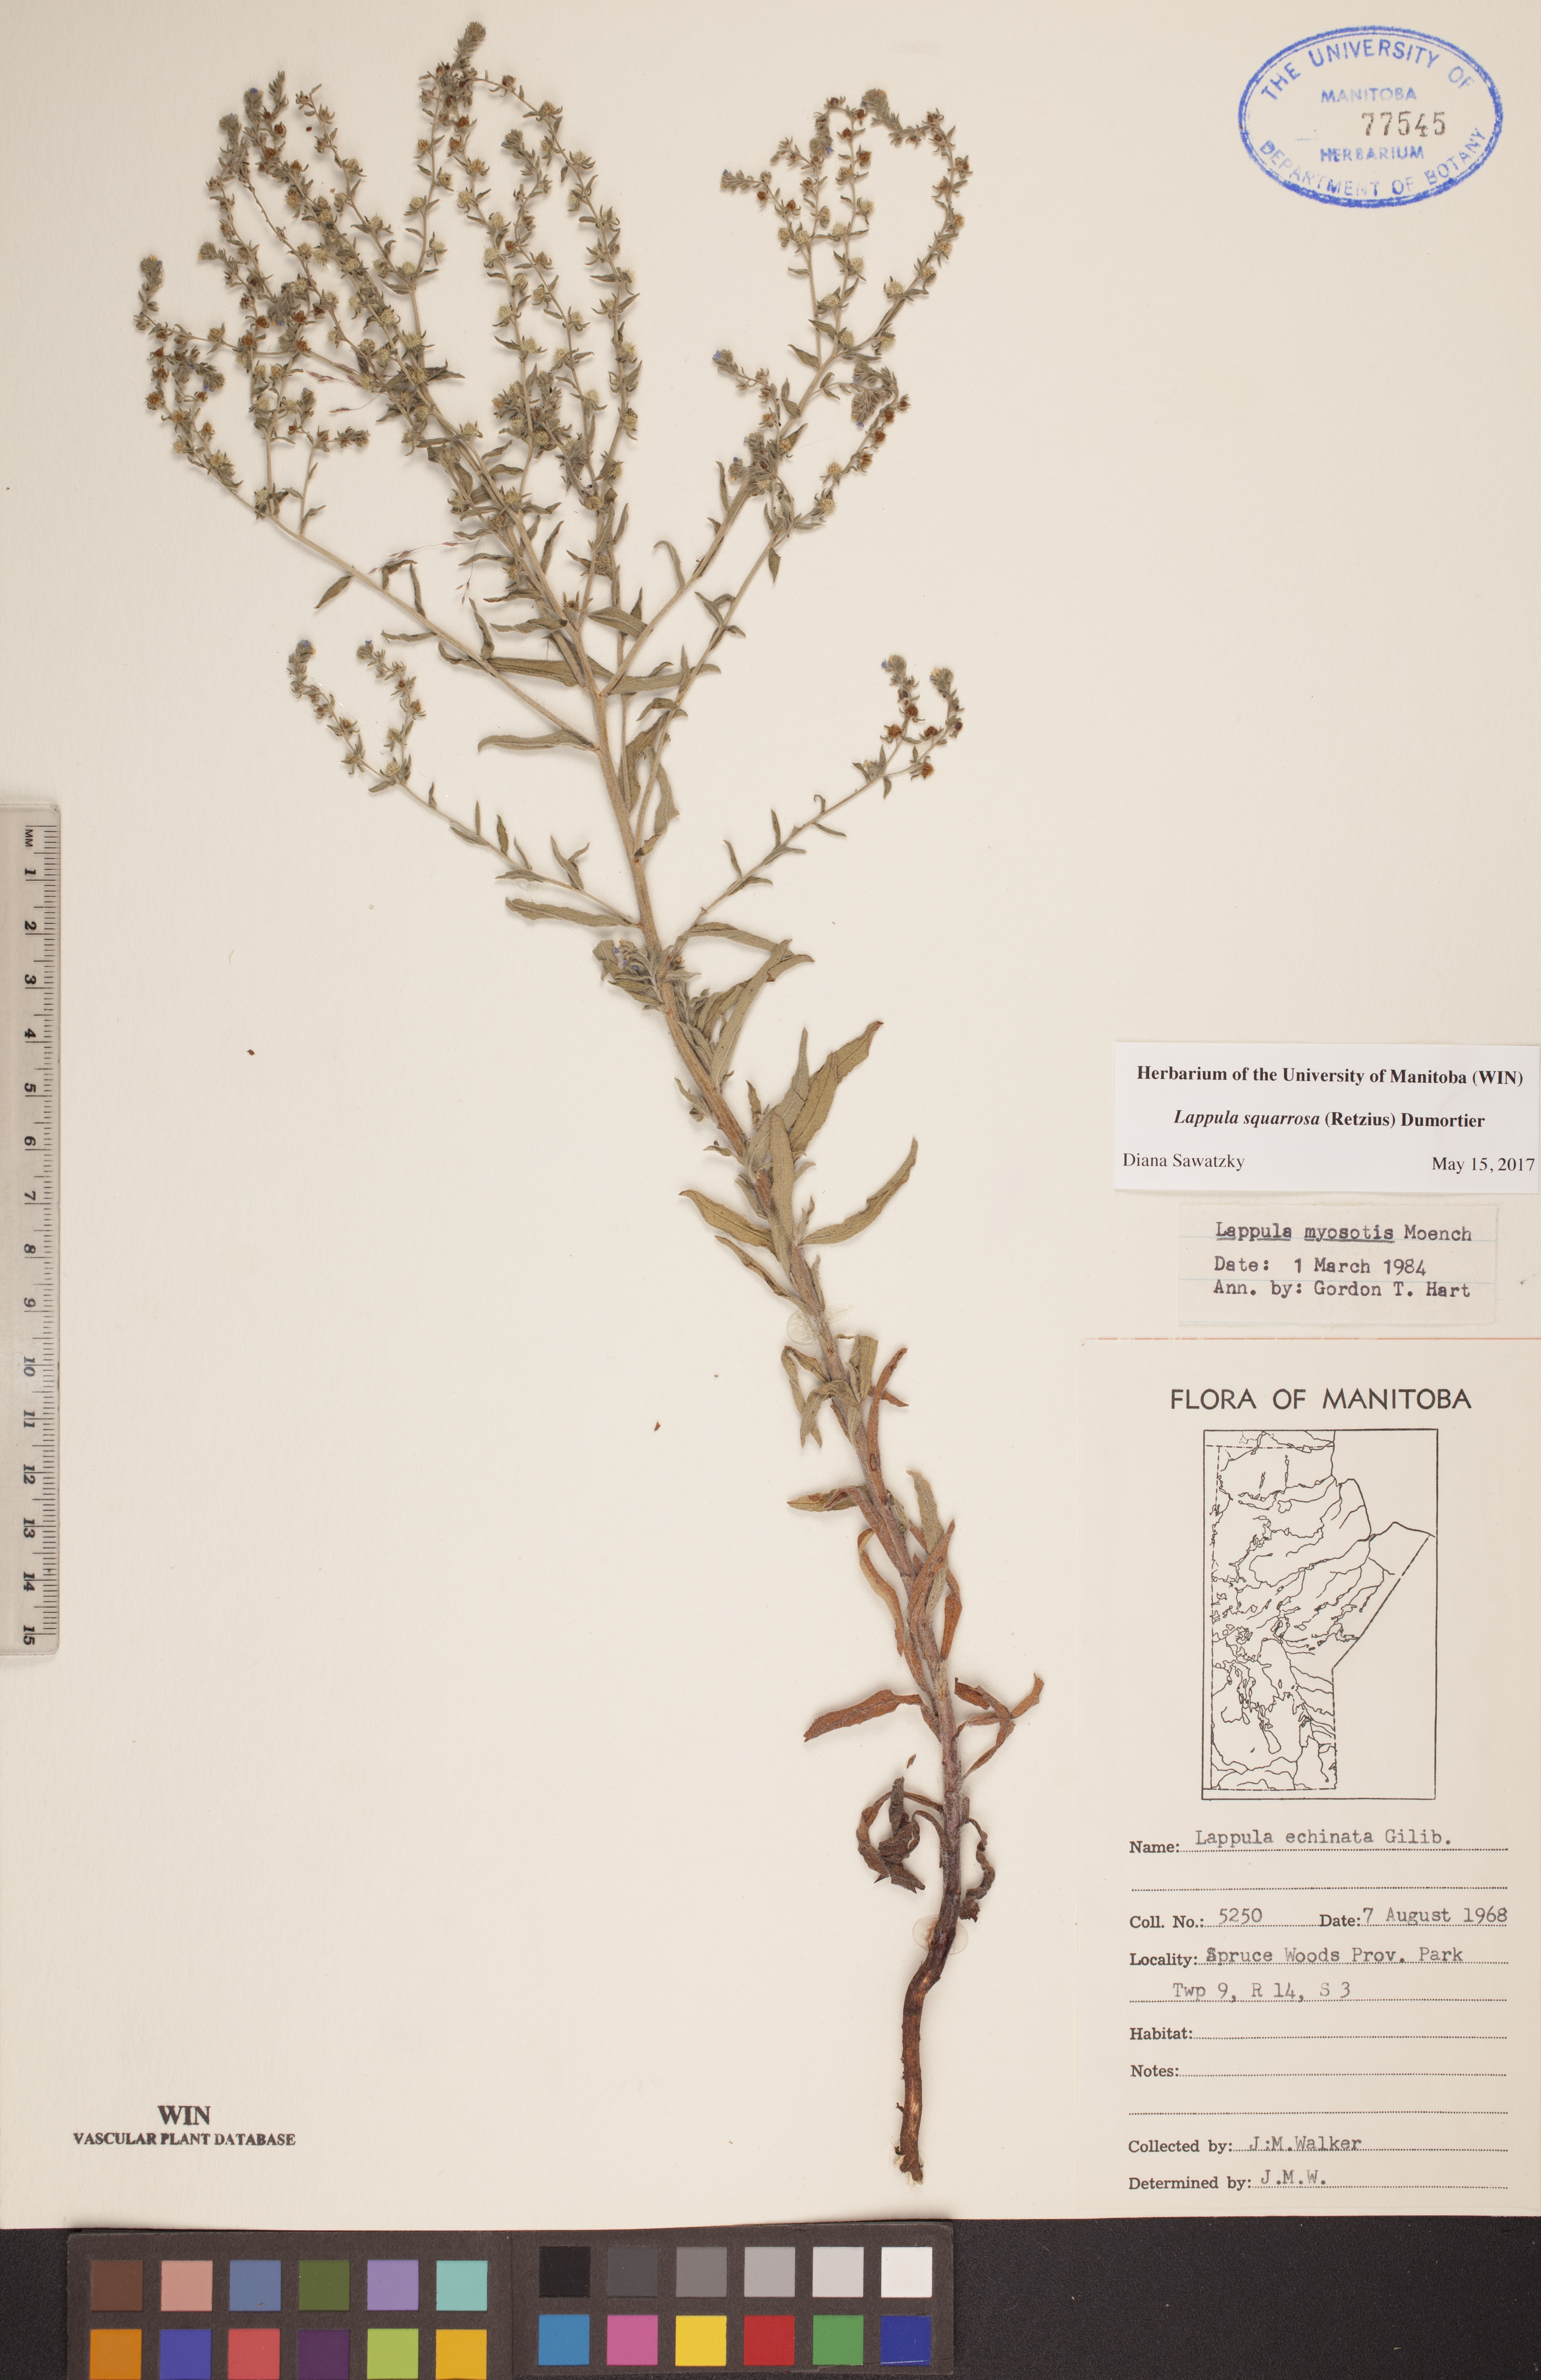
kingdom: Plantae
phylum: Tracheophyta
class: Magnoliopsida
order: Boraginales
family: Boraginaceae
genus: Lappula
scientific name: Lappula squarrosa
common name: European stickseed
